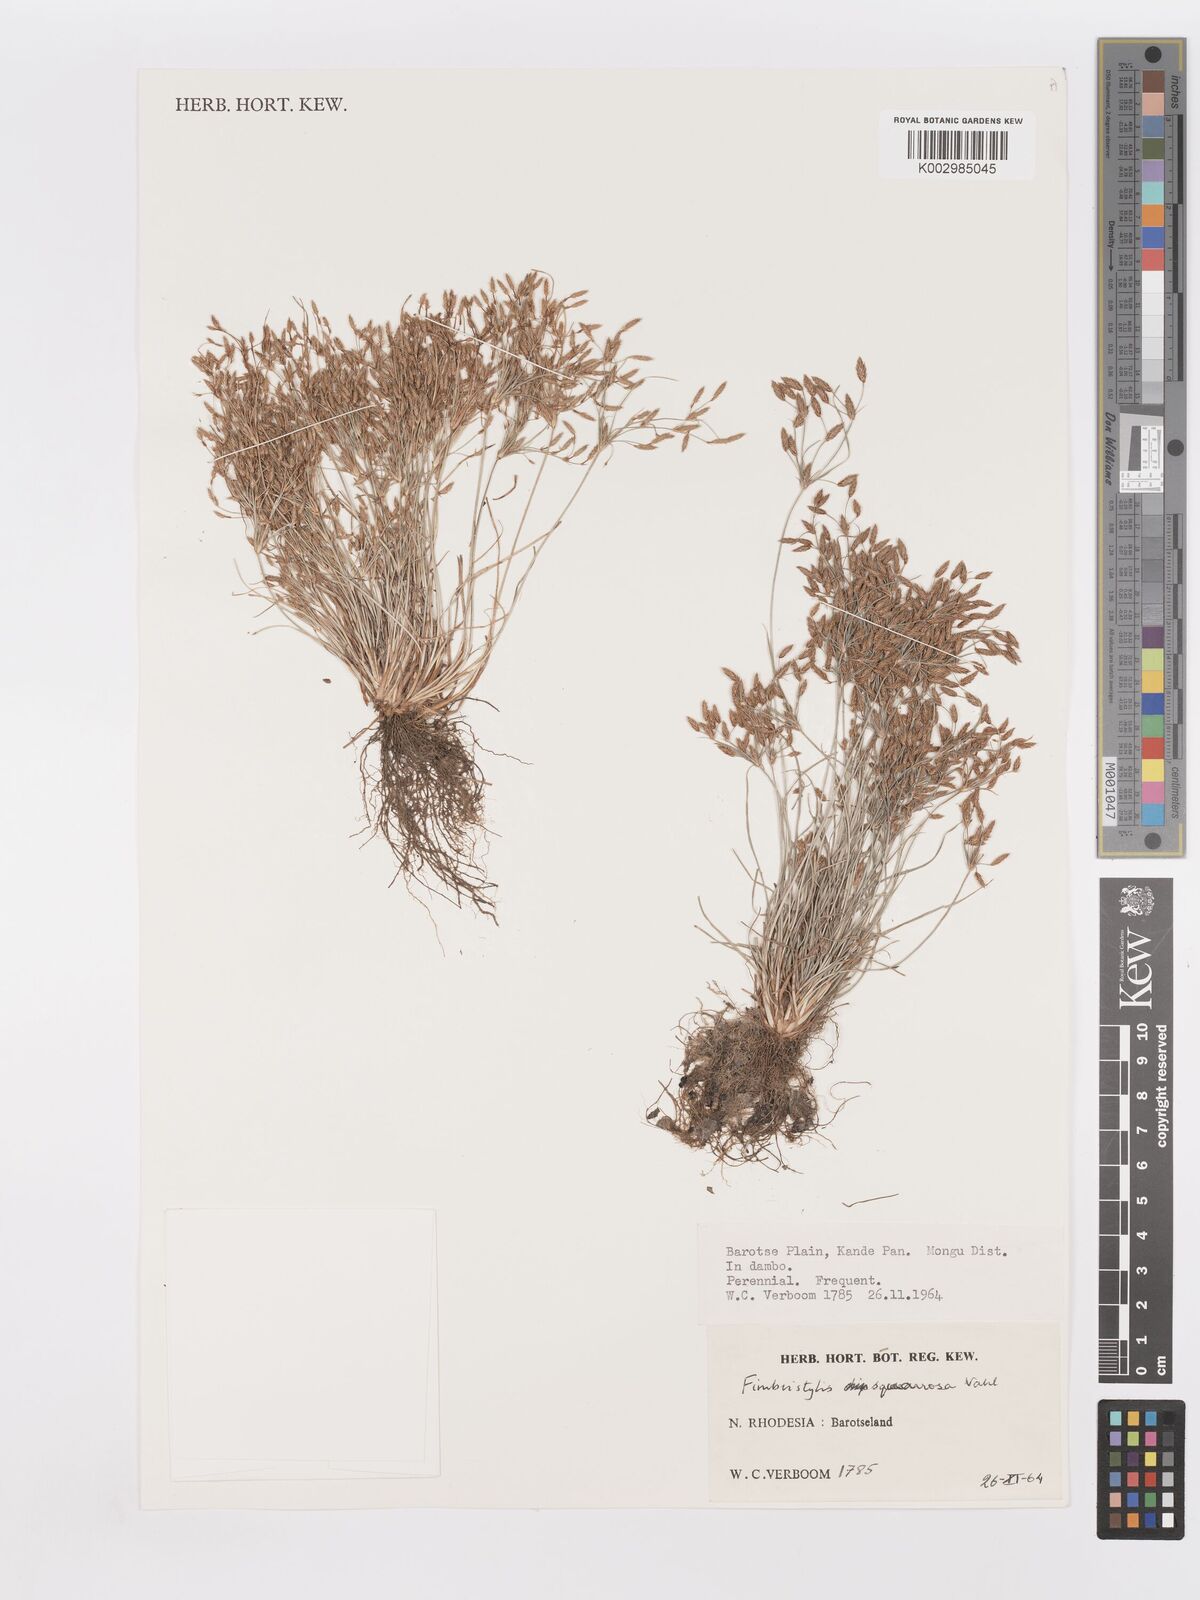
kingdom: Plantae
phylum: Tracheophyta
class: Liliopsida
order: Poales
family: Cyperaceae
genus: Fimbristylis
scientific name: Fimbristylis squarrosa
